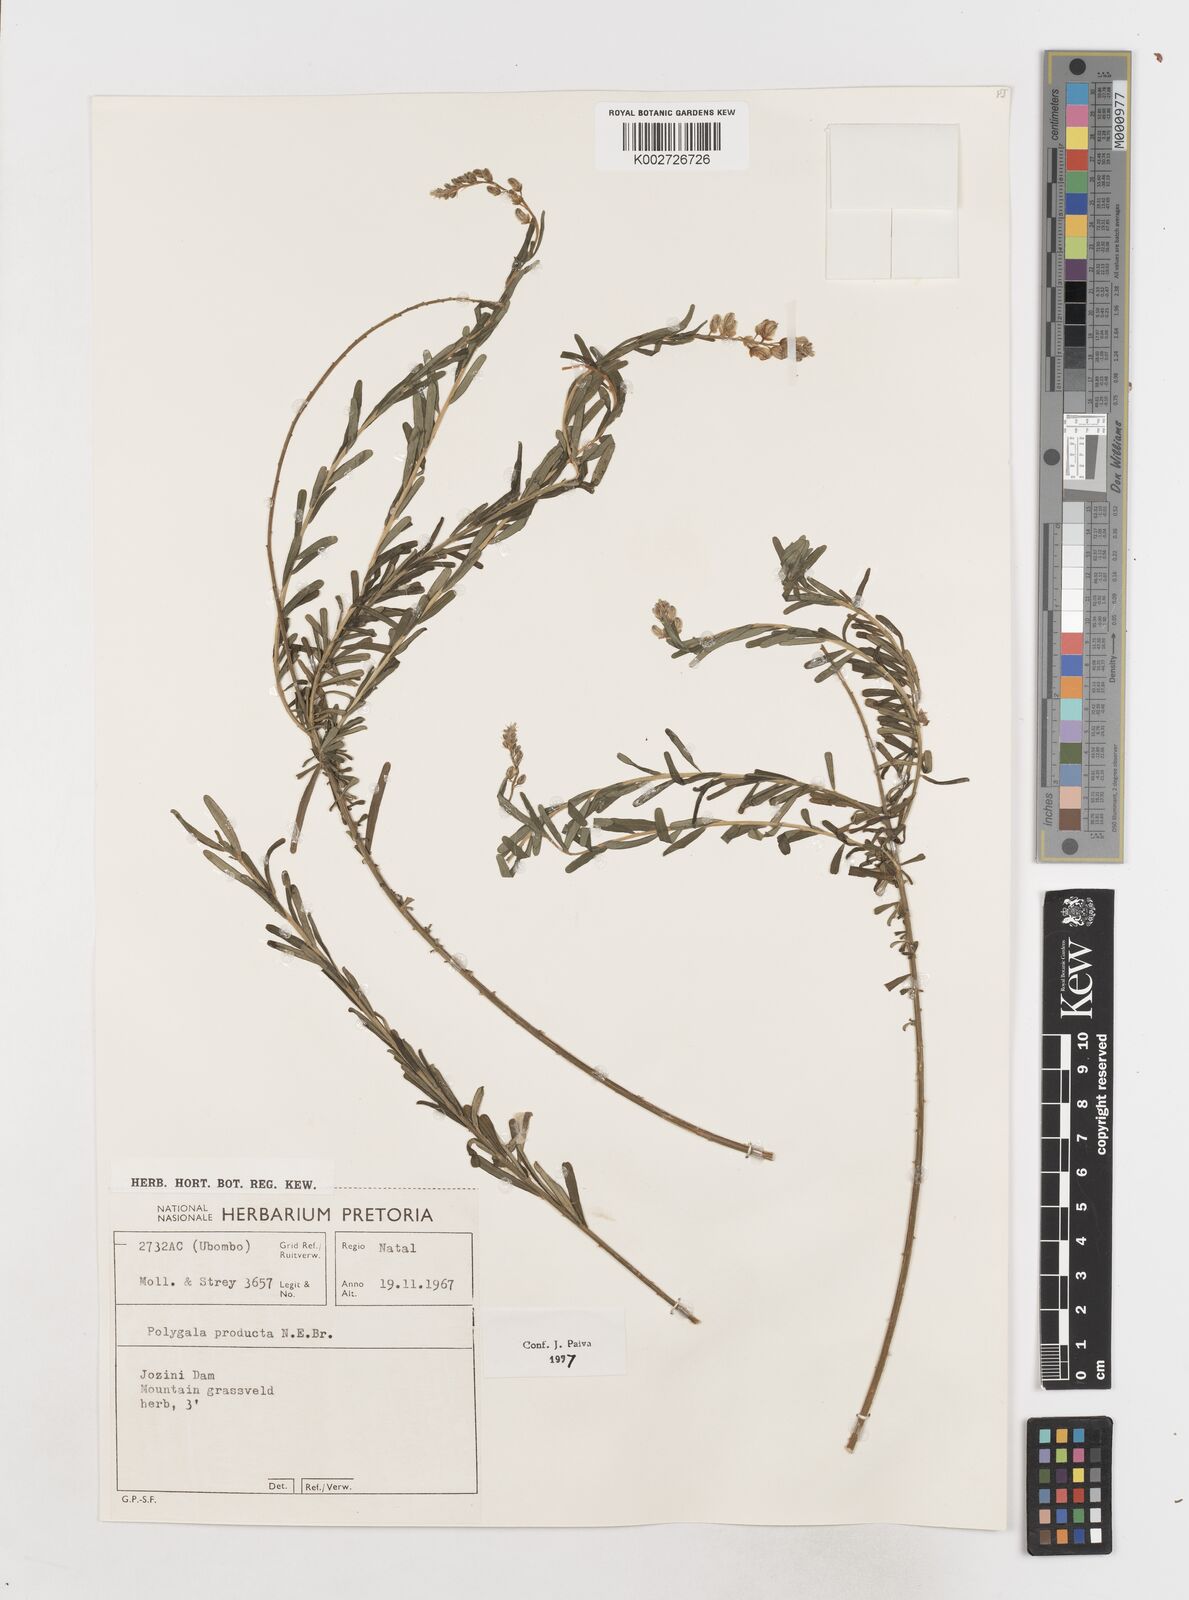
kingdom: Plantae
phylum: Tracheophyta
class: Magnoliopsida
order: Fabales
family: Polygalaceae
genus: Polygala
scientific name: Polygala producta
